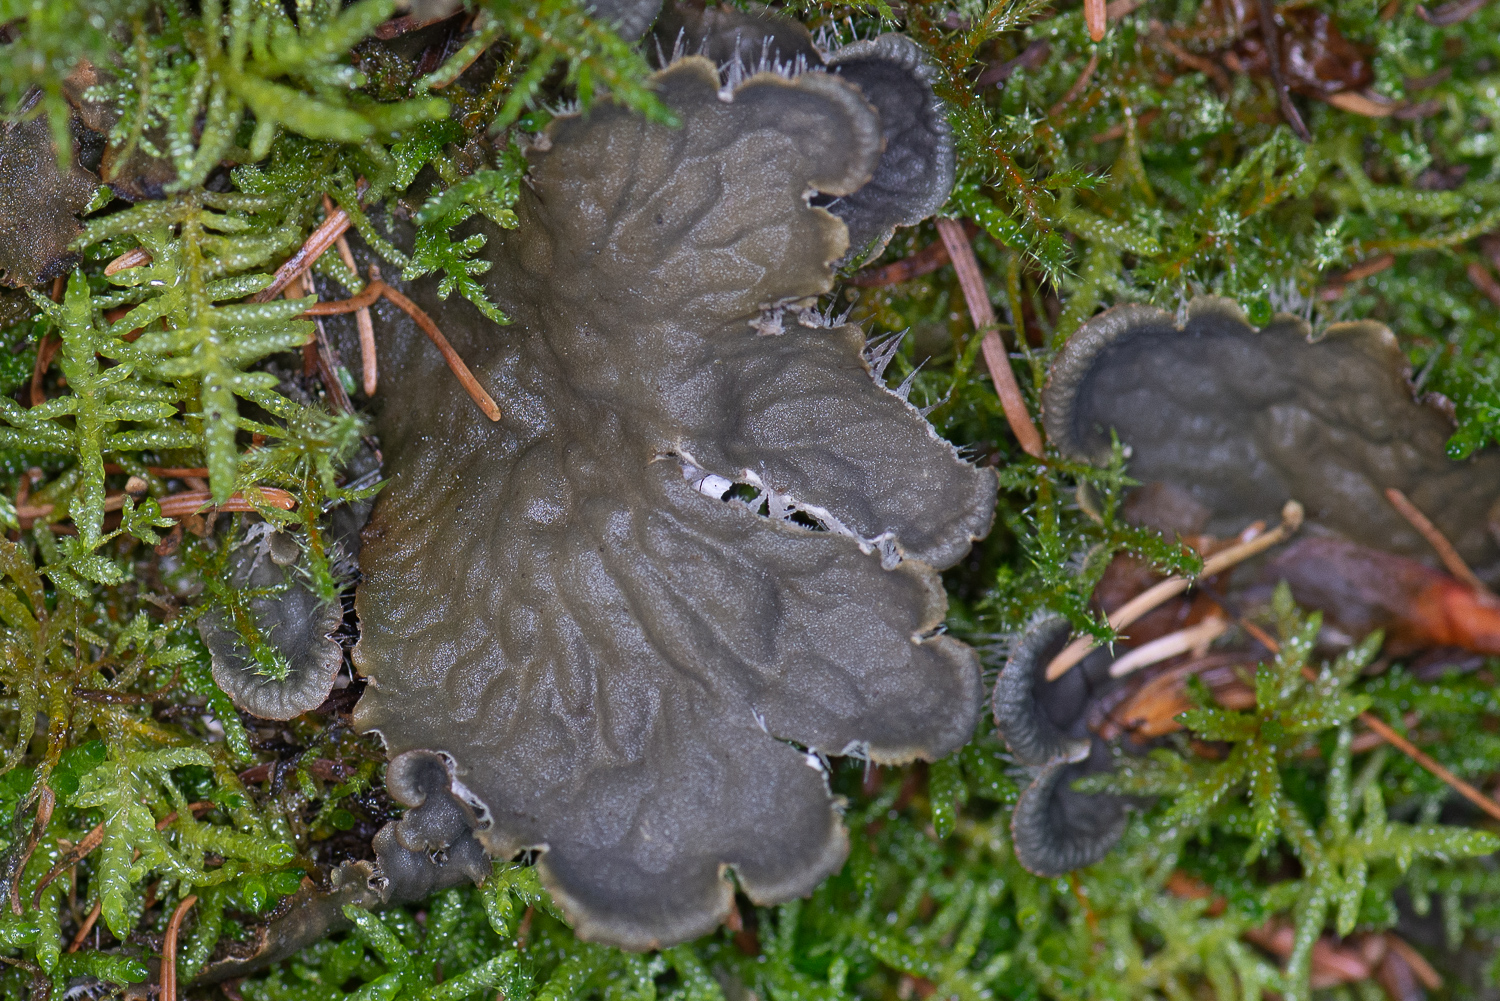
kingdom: Fungi
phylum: Ascomycota
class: Lecanoromycetes
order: Peltigerales
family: Peltigeraceae
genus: Peltigera
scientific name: Peltigera membranacea
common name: tynd skjoldlav
